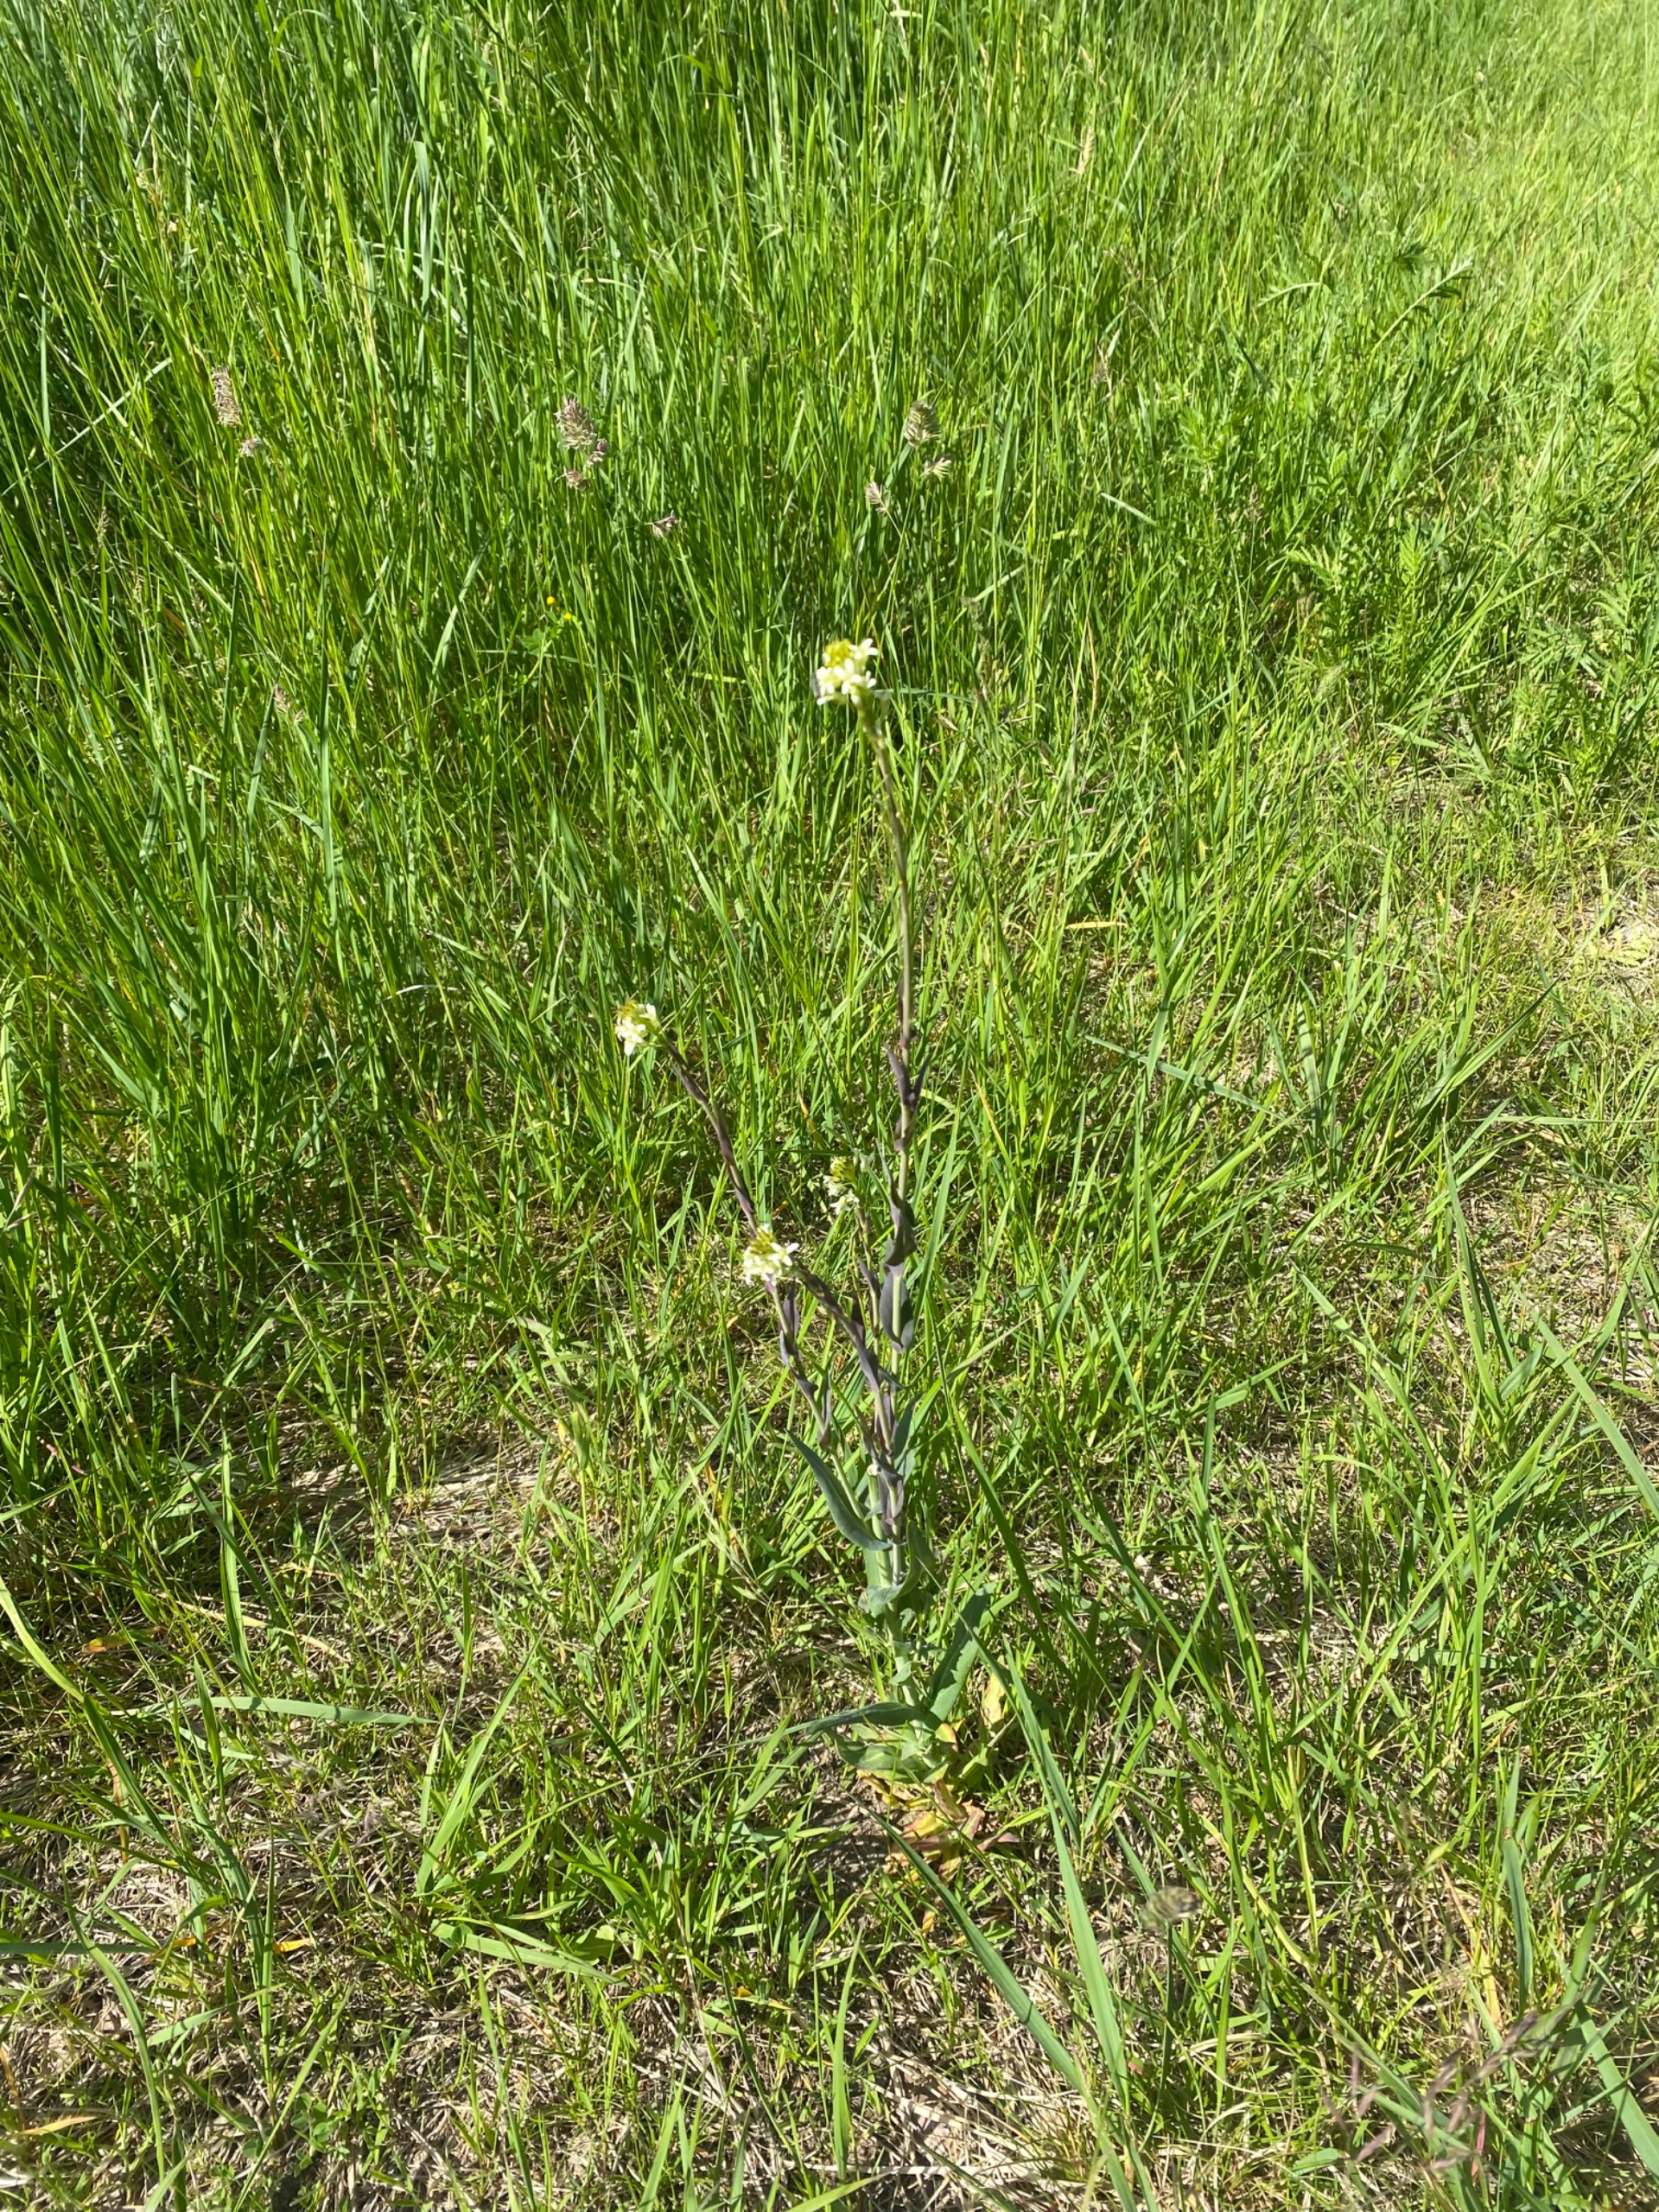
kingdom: Plantae
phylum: Tracheophyta
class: Magnoliopsida
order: Brassicales
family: Brassicaceae
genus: Turritis
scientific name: Turritis glabra
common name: Tårnurt
